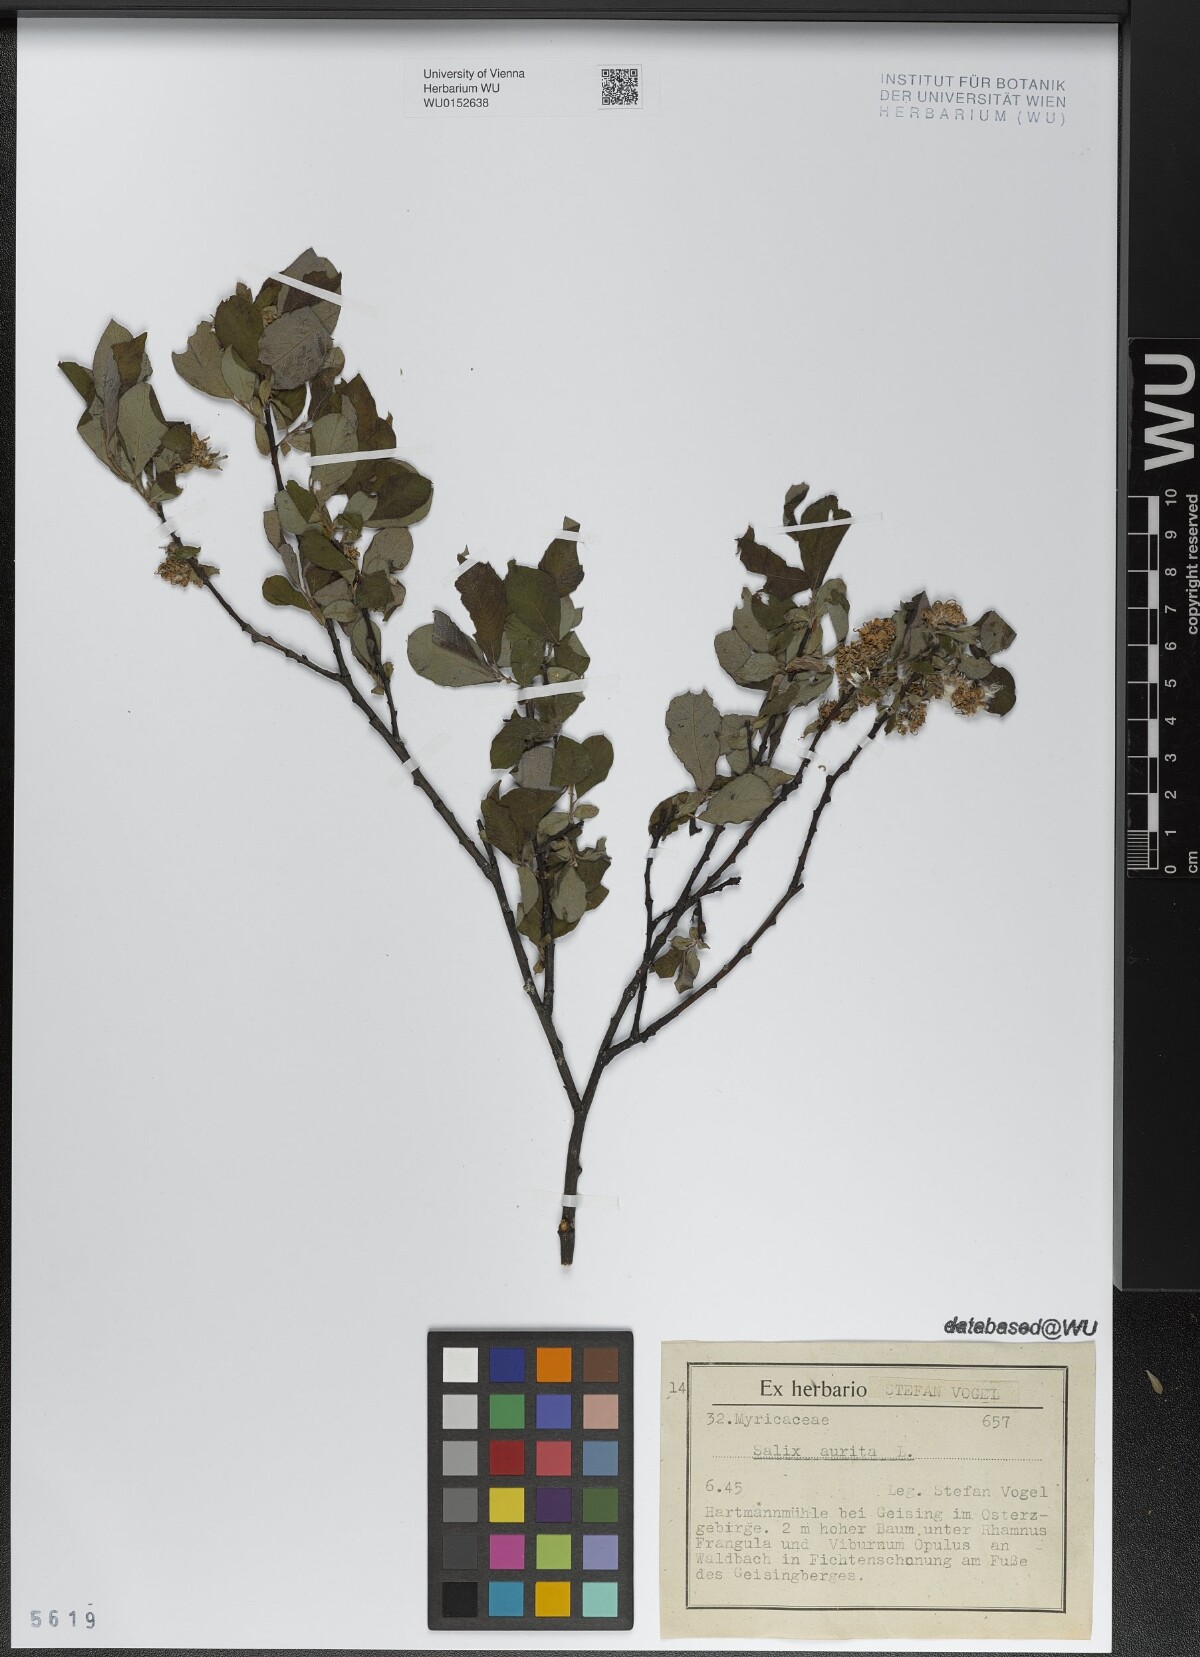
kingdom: Plantae
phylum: Tracheophyta
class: Magnoliopsida
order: Malpighiales
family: Salicaceae
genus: Salix
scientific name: Salix aurita
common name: Eared willow
